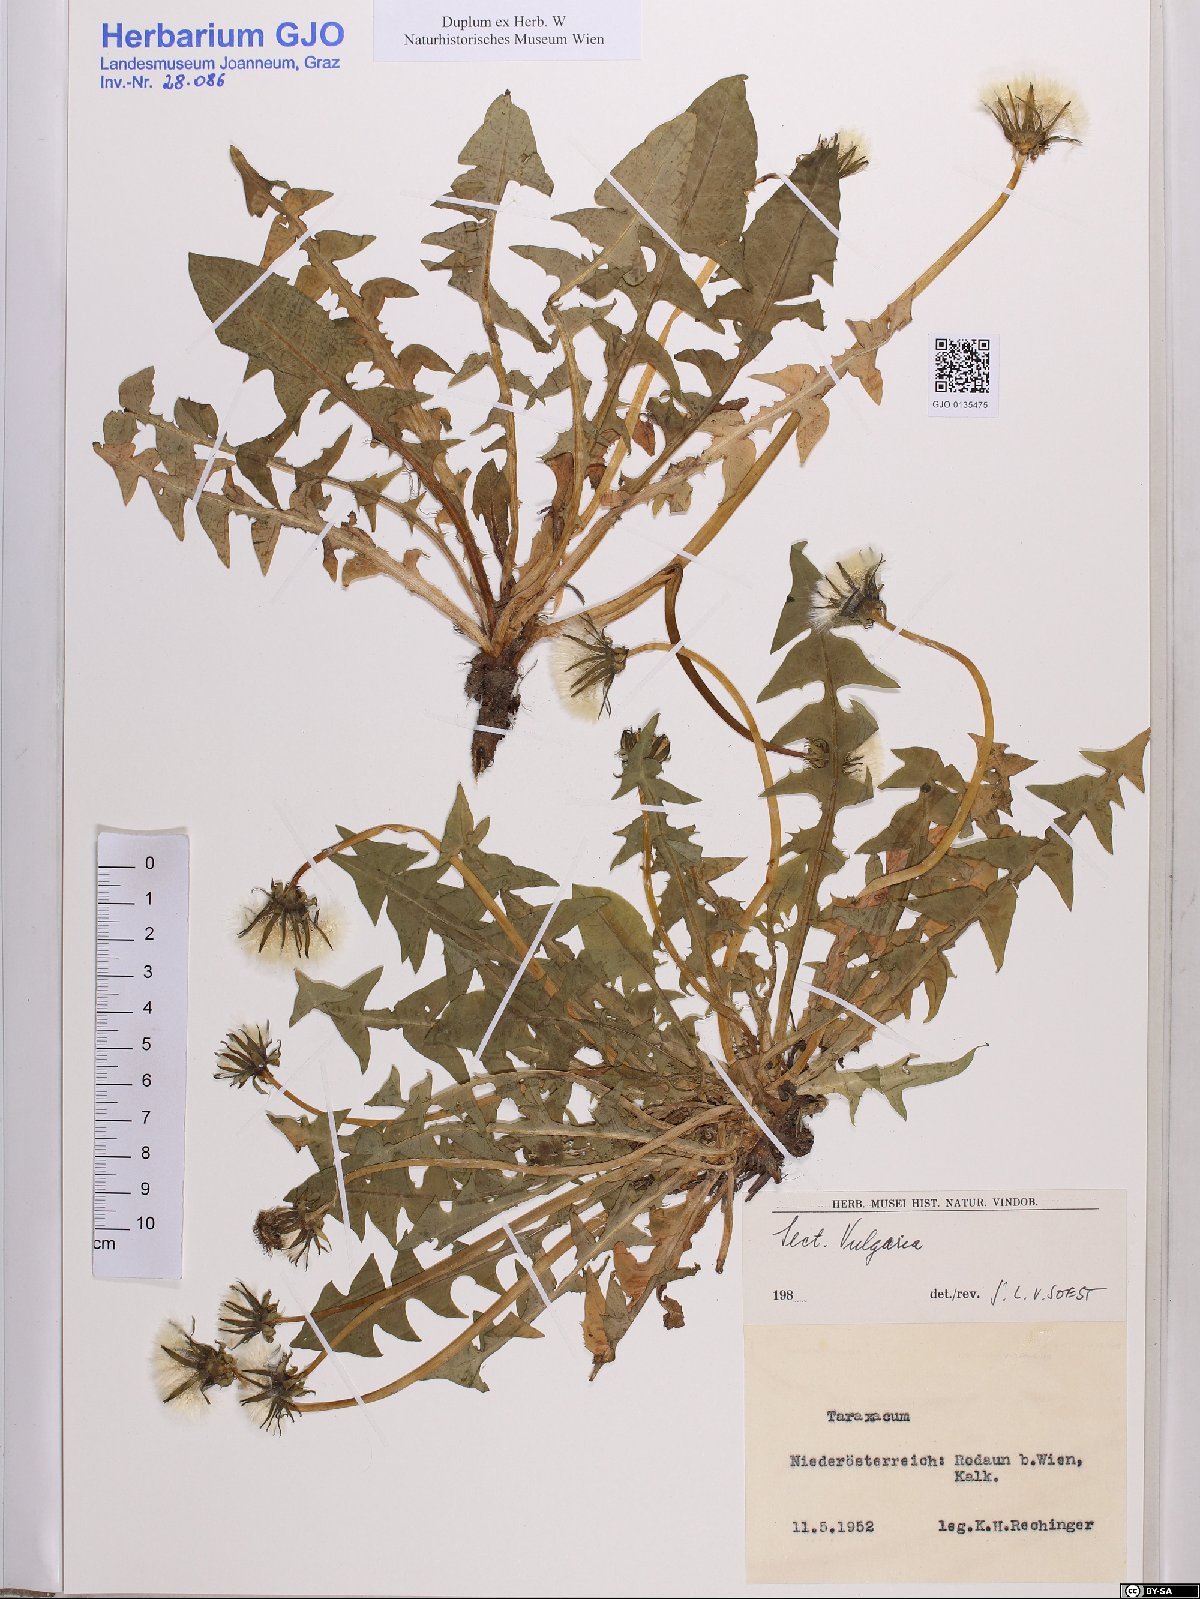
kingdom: Plantae
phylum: Tracheophyta
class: Magnoliopsida
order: Asterales
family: Asteraceae
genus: Taraxacum
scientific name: Taraxacum officinale
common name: Common dandelion
